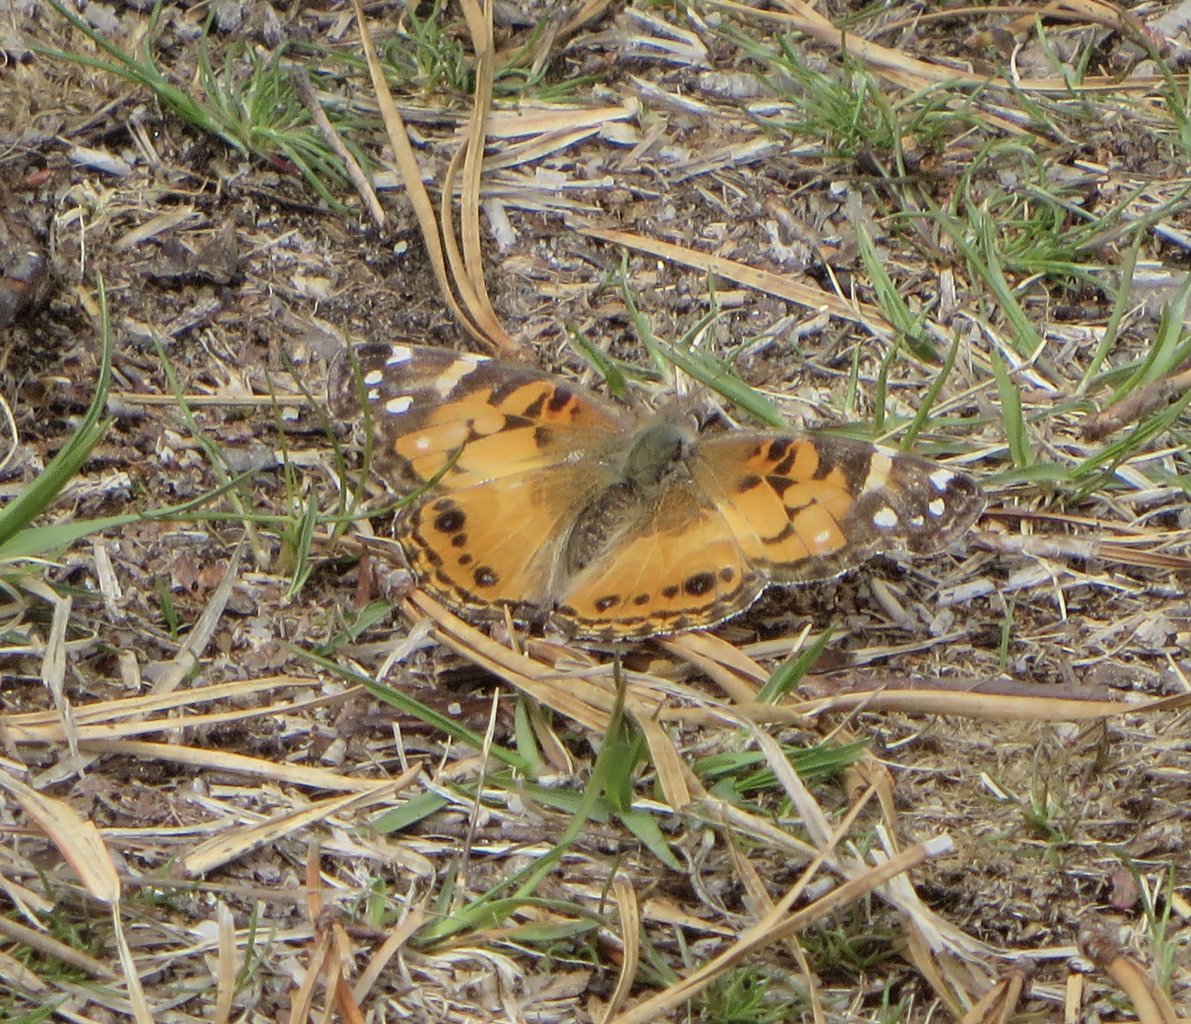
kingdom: Animalia
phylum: Arthropoda
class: Insecta
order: Lepidoptera
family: Nymphalidae
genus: Vanessa
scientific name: Vanessa virginiensis
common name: American Lady
